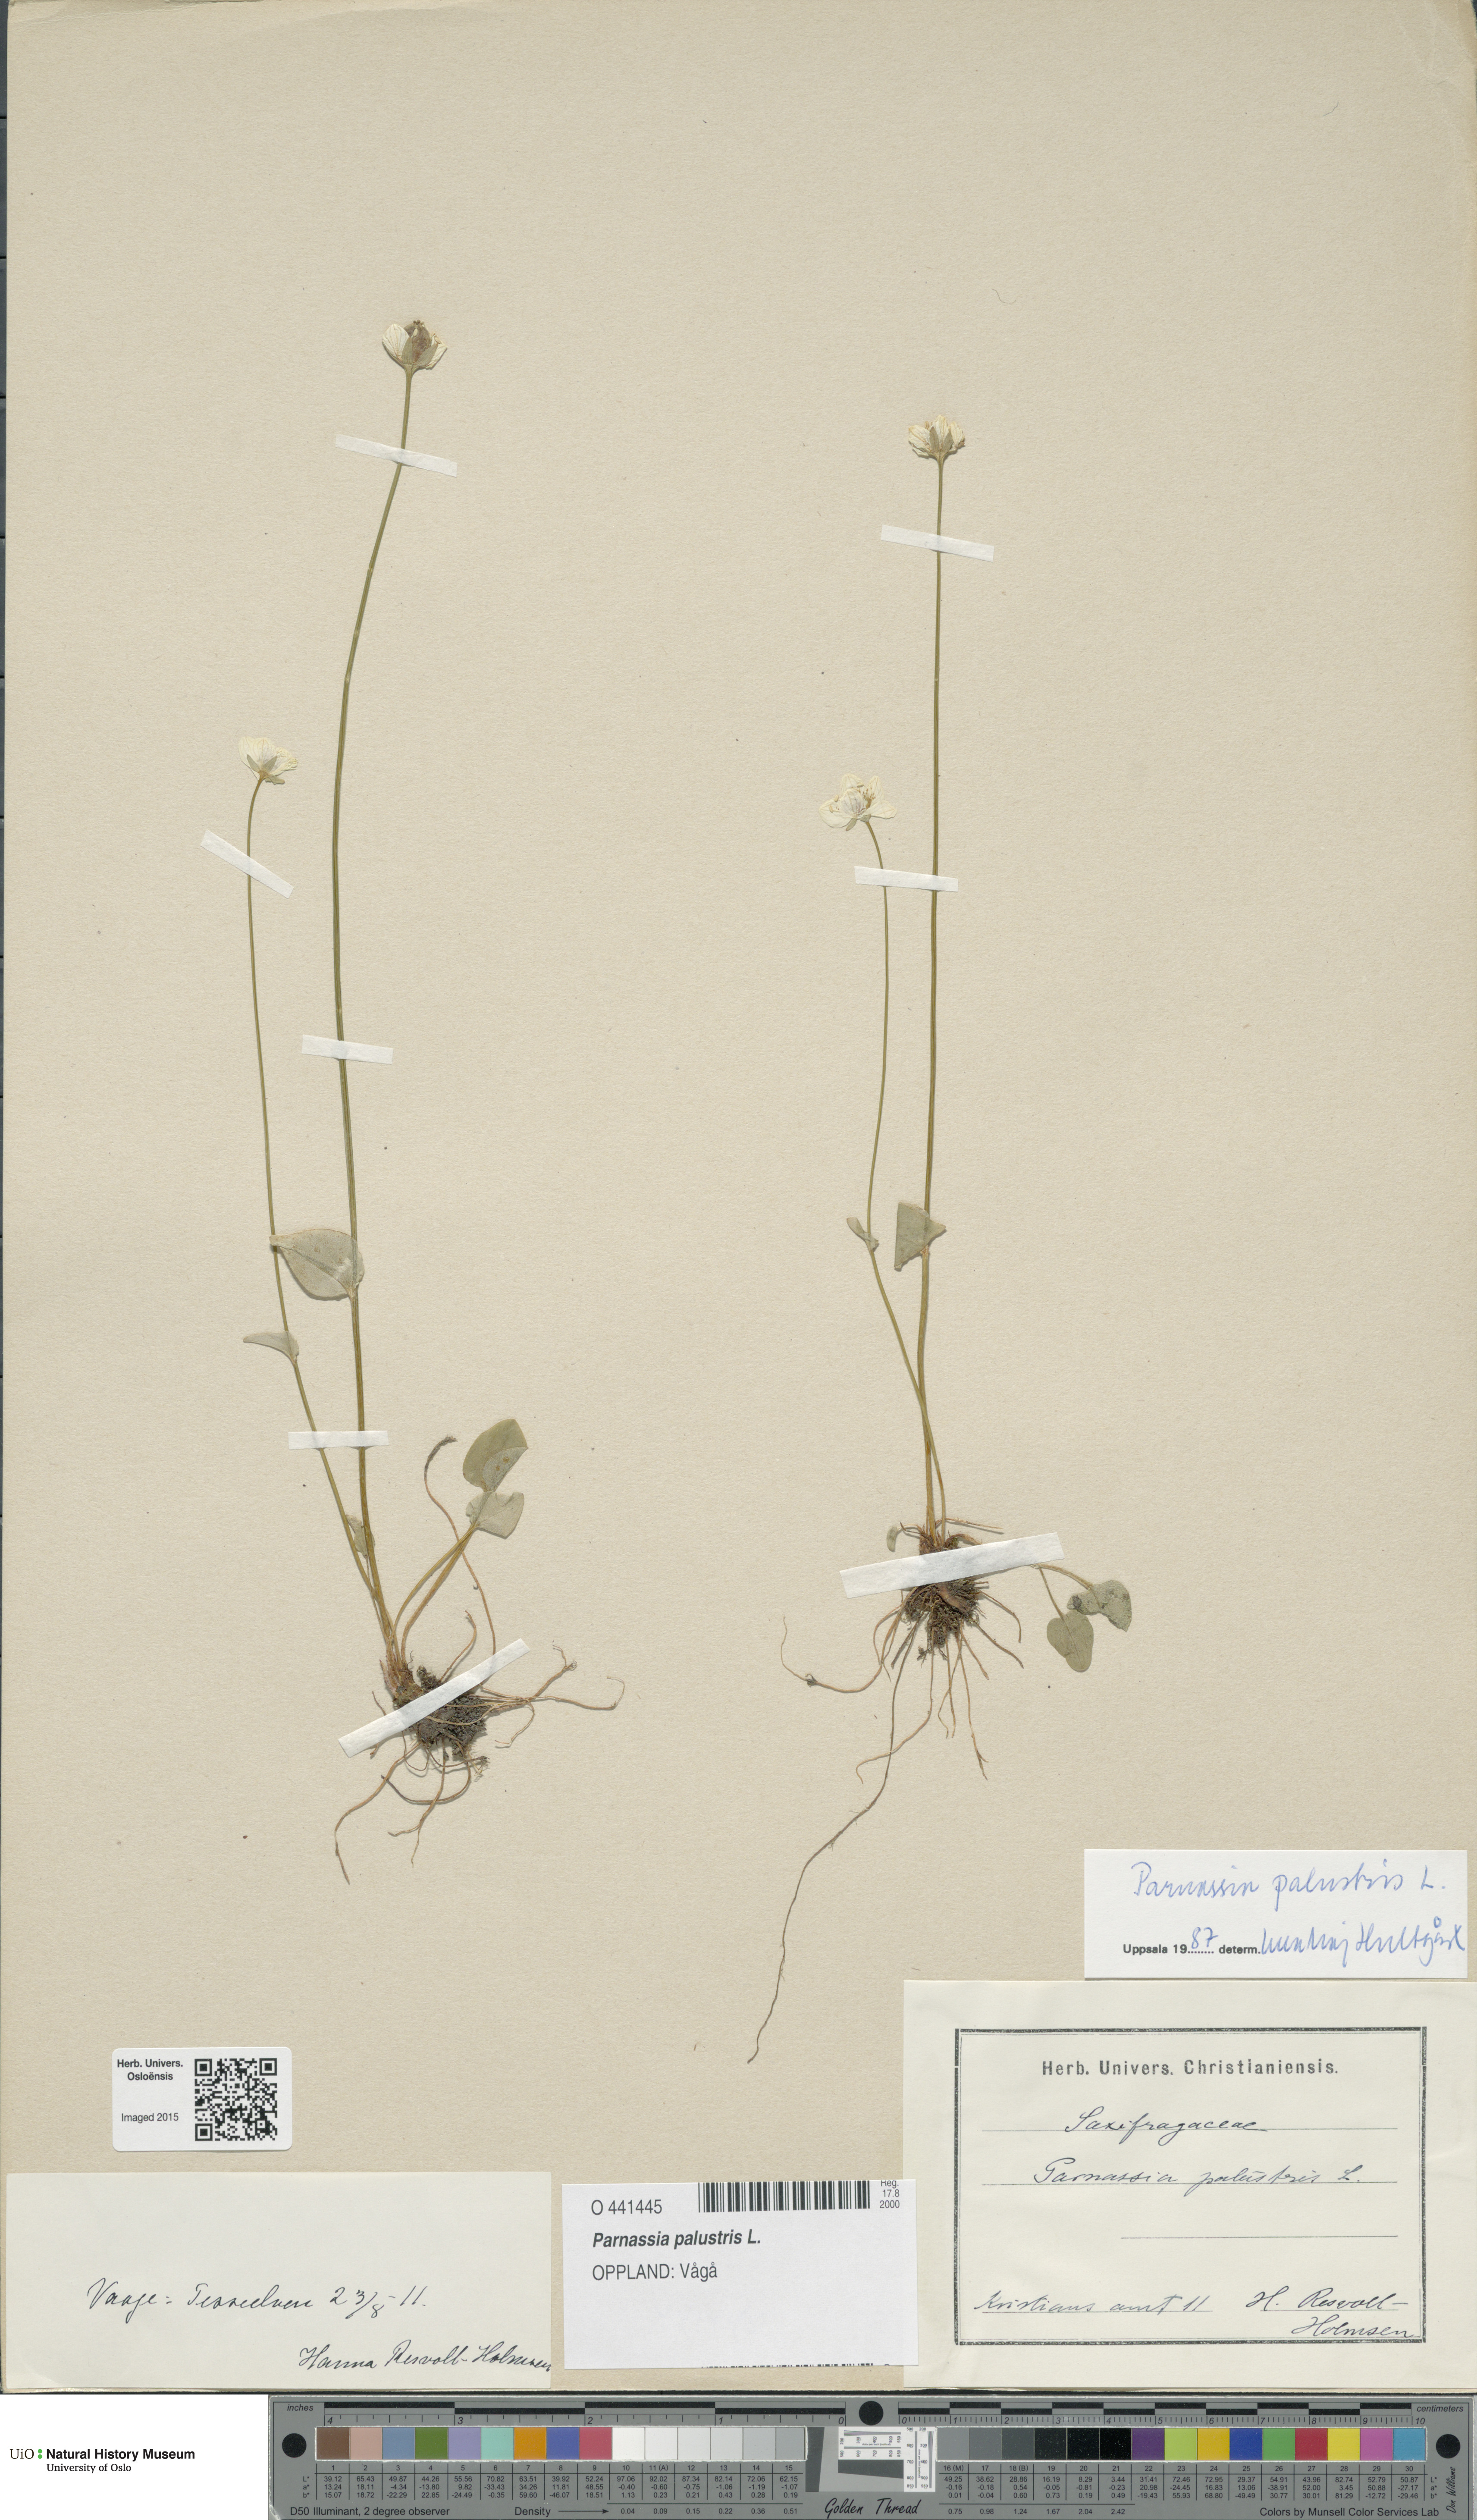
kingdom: Plantae
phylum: Tracheophyta
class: Magnoliopsida
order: Celastrales
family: Parnassiaceae
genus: Parnassia
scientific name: Parnassia palustris
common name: Grass-of-parnassus
